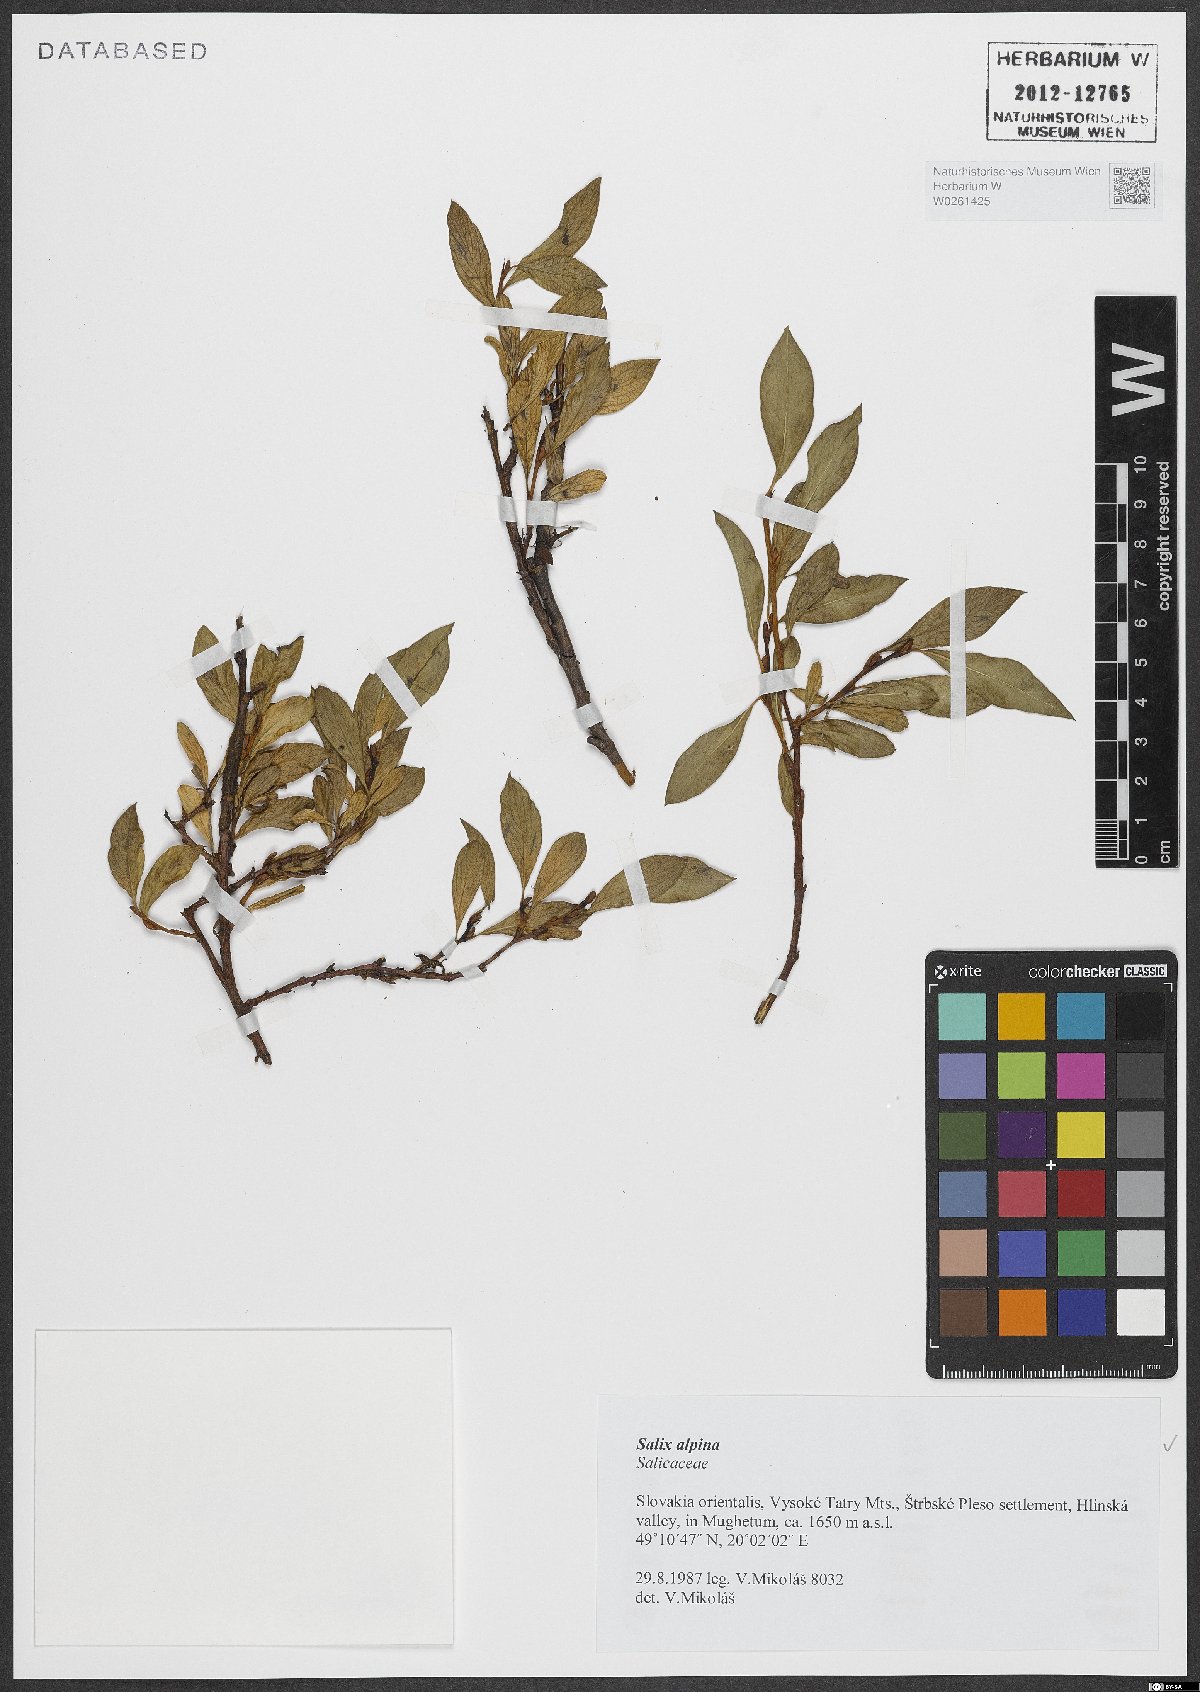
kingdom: Plantae
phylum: Tracheophyta
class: Magnoliopsida
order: Malpighiales
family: Salicaceae
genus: Salix
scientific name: Salix alpina
